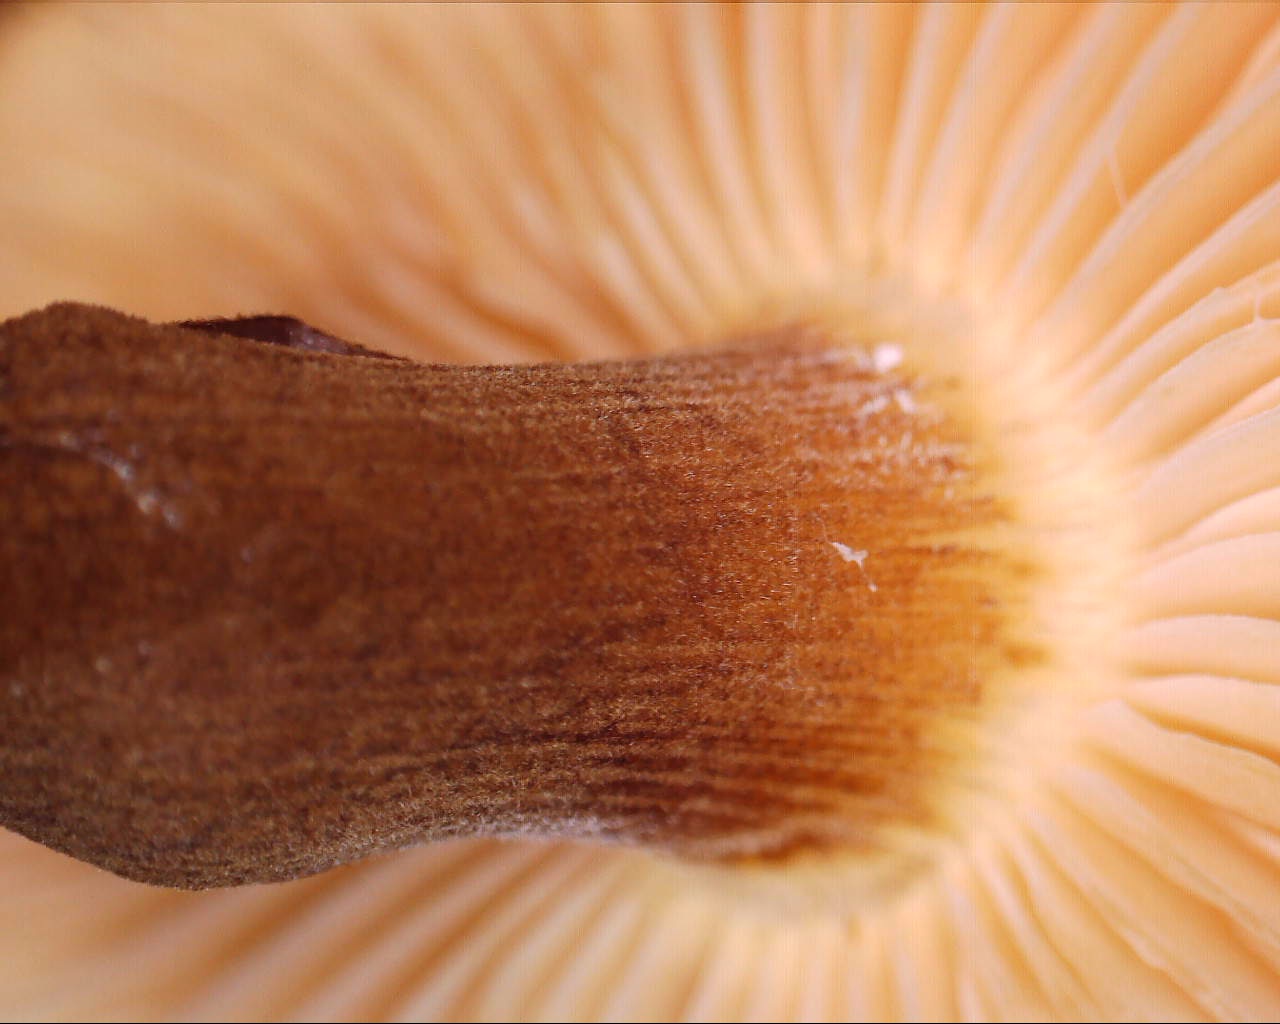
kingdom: Fungi
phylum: Basidiomycota
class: Agaricomycetes
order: Agaricales
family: Physalacriaceae
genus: Flammulina
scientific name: Flammulina velutipes
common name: gul fløjlsfod
